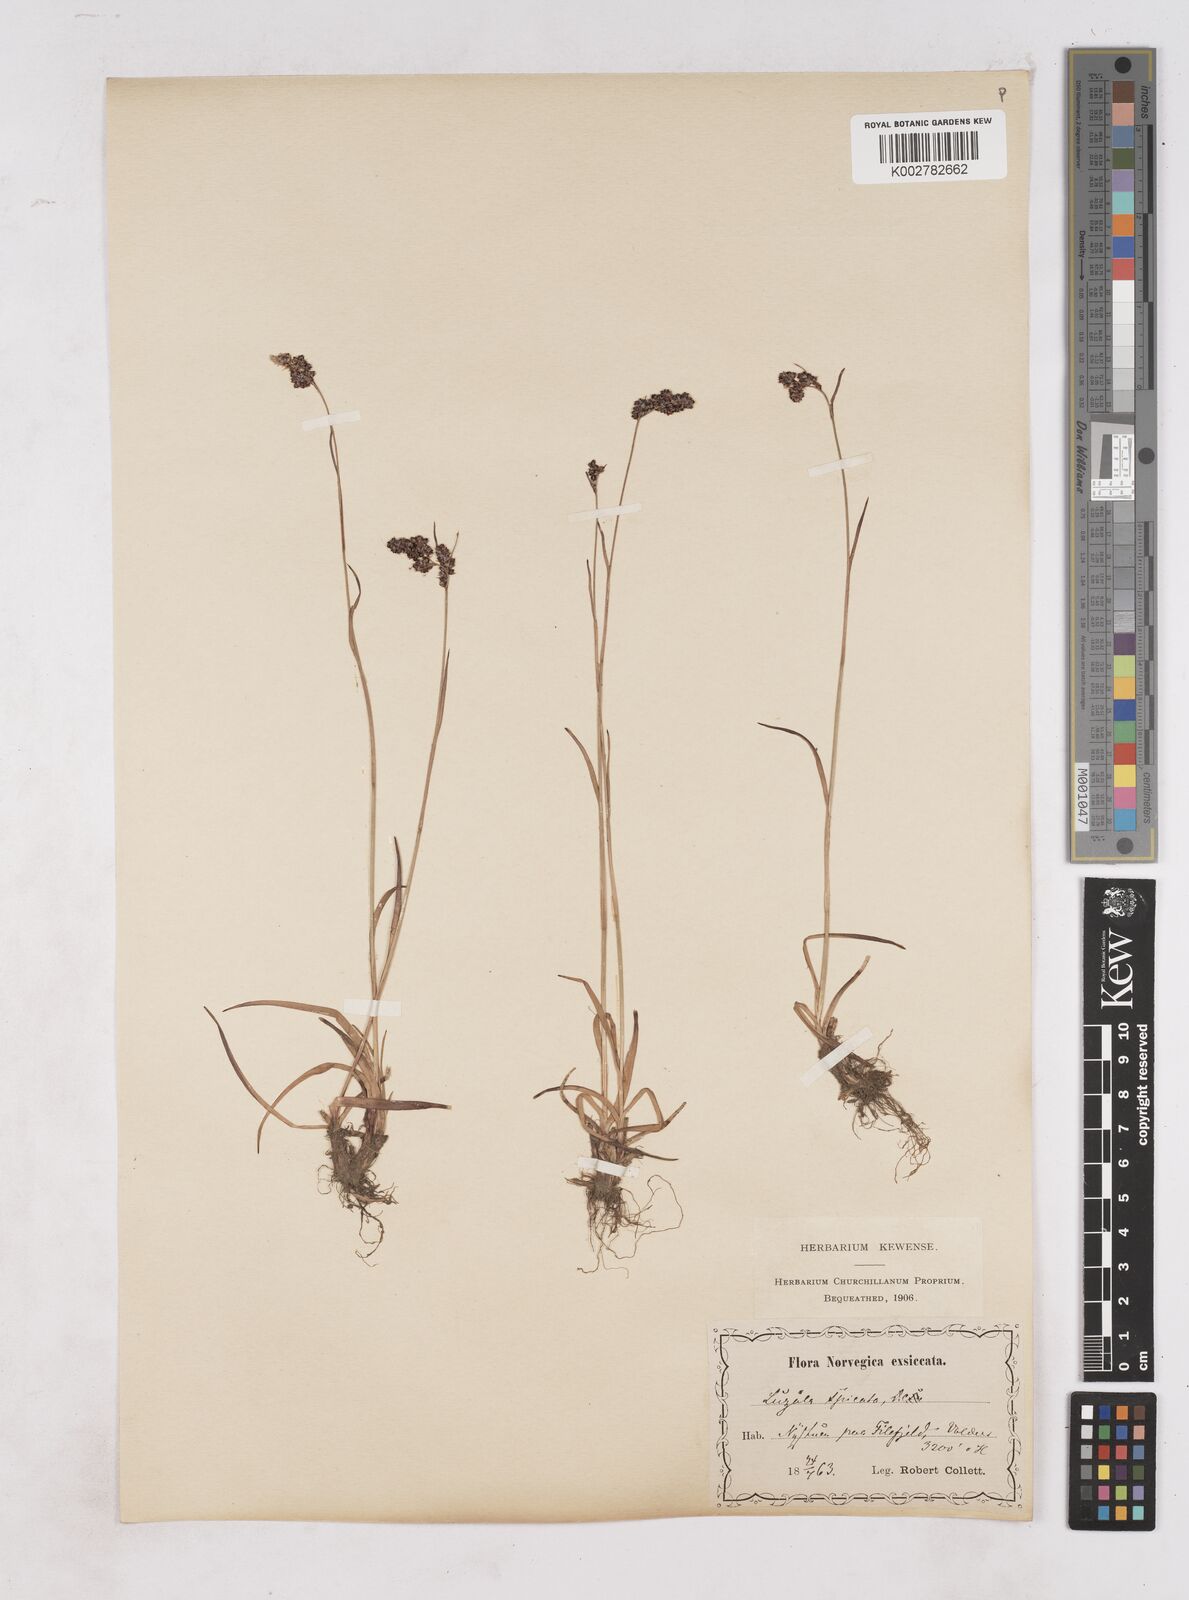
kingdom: Plantae
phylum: Tracheophyta
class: Liliopsida
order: Poales
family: Juncaceae
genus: Luzula
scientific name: Luzula spicata
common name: Spiked wood-rush
